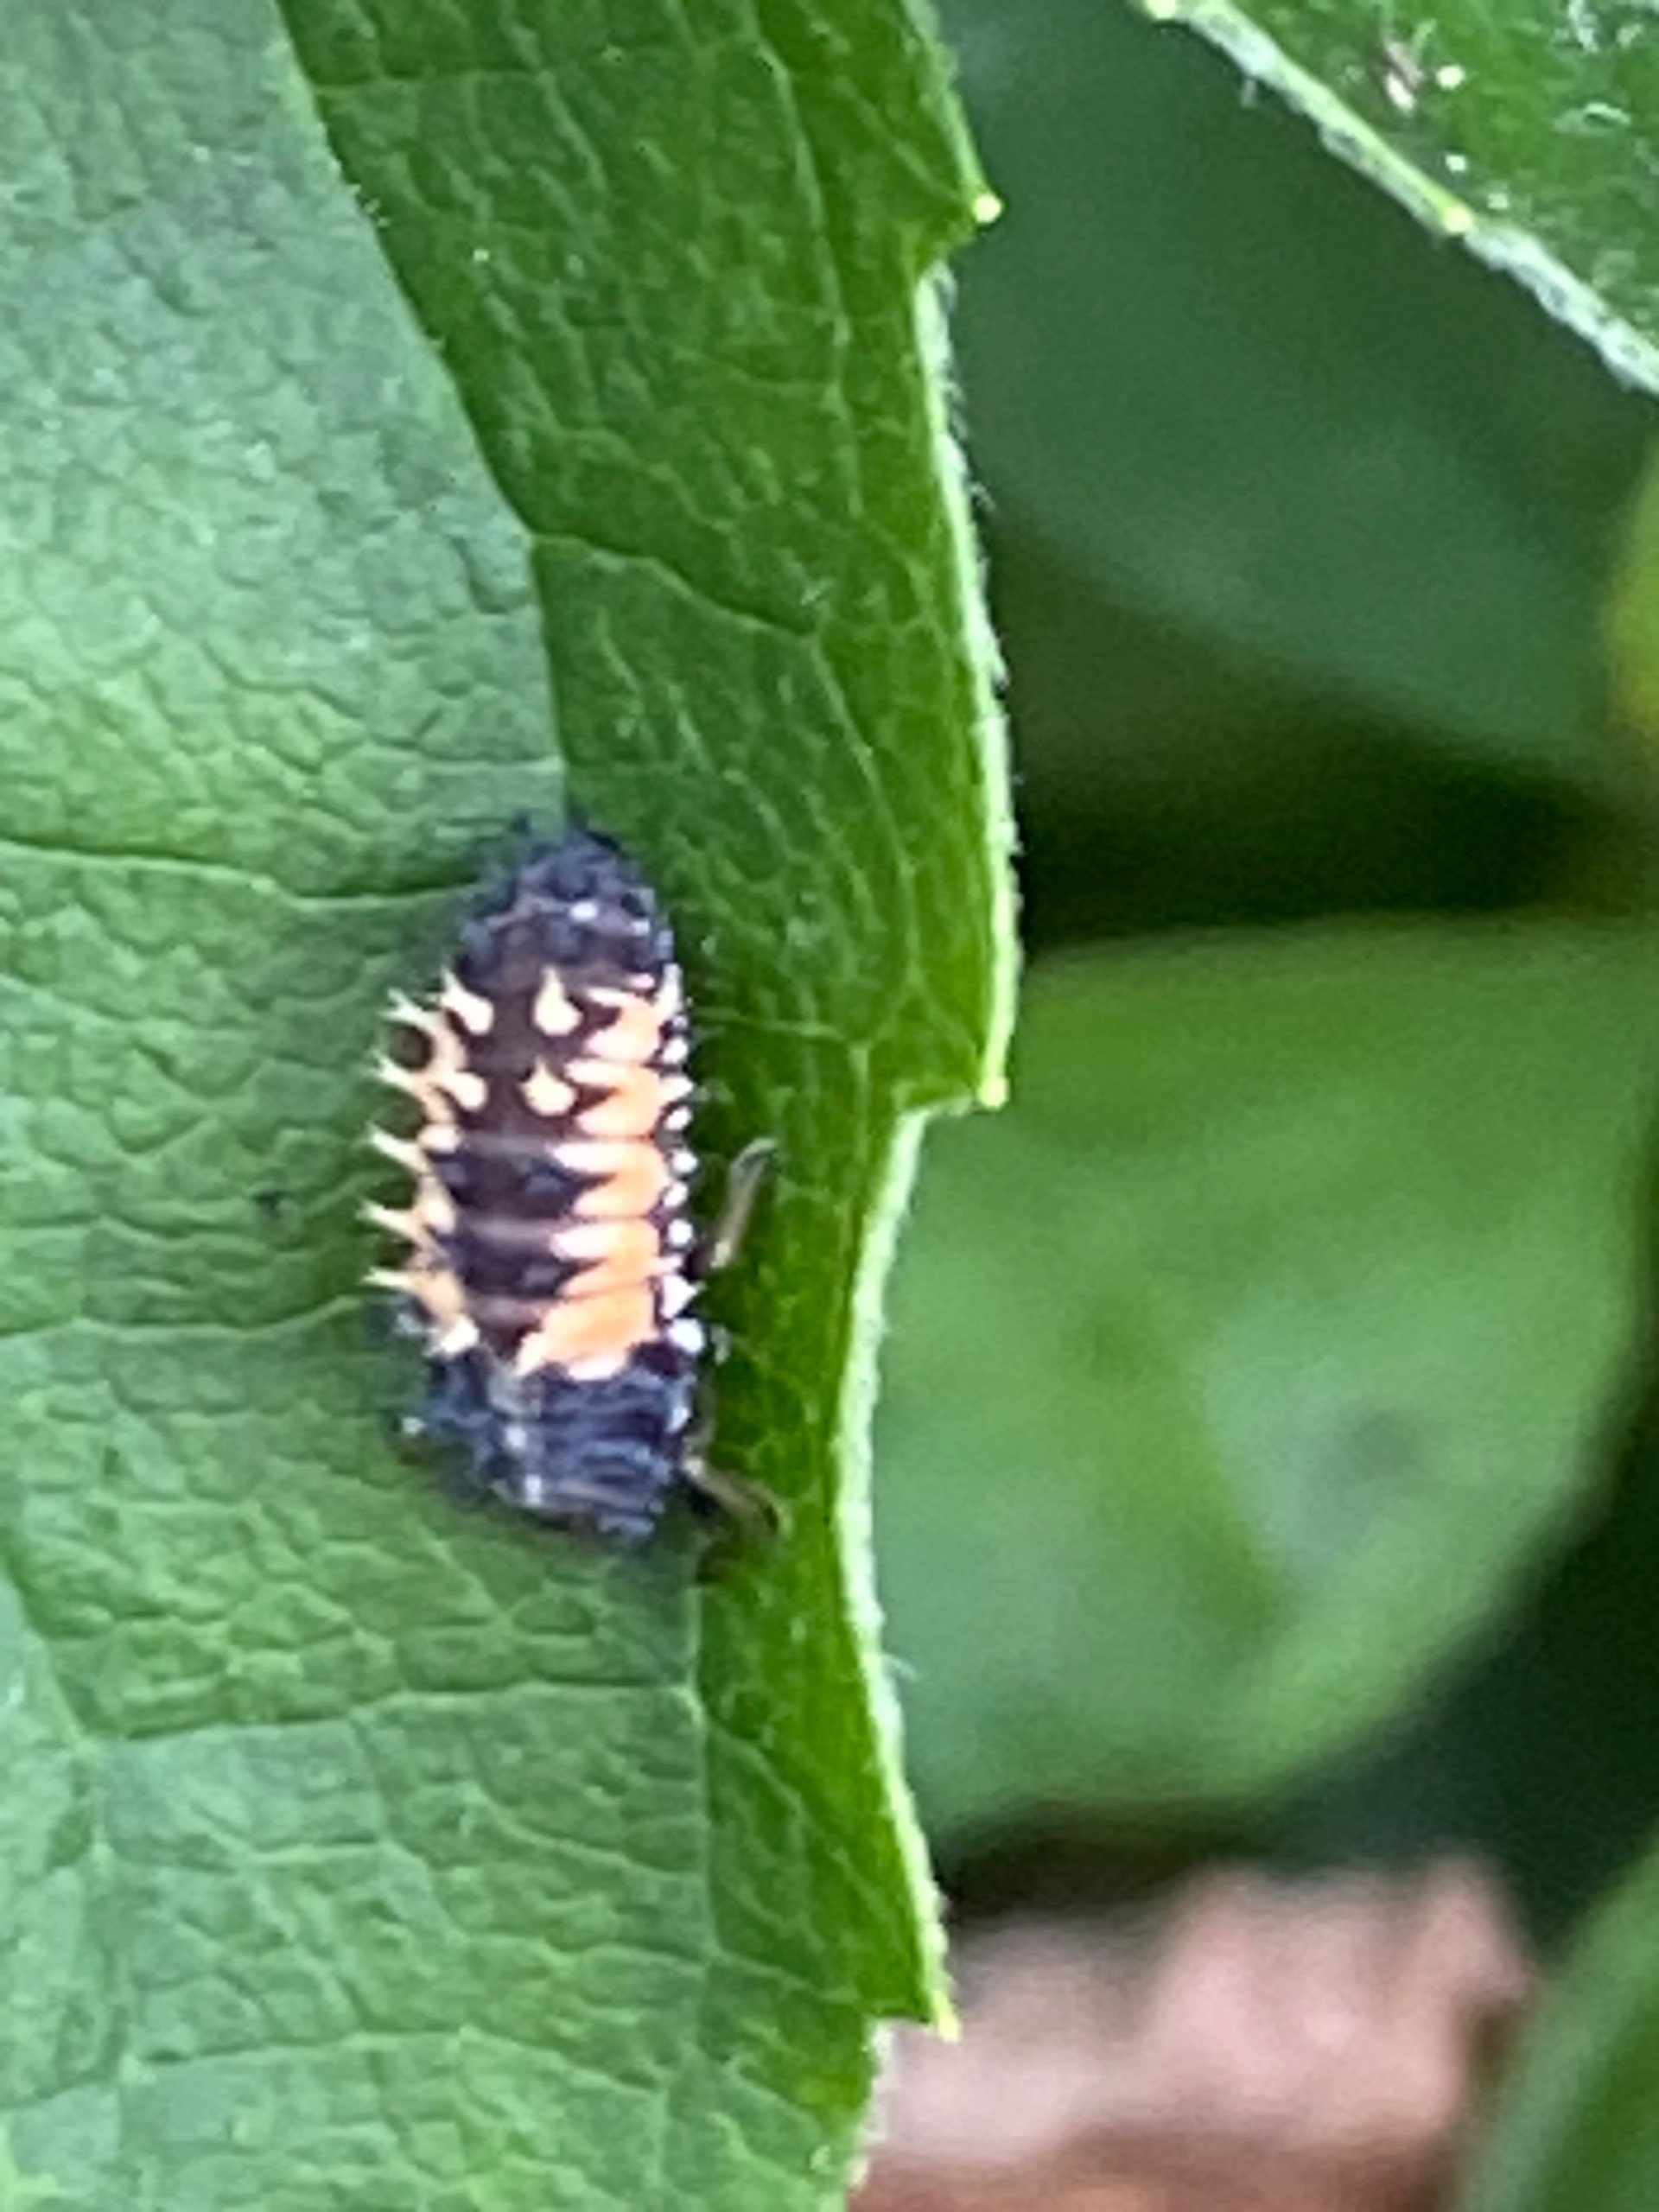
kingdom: Animalia
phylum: Arthropoda
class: Insecta
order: Coleoptera
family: Coccinellidae
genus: Harmonia
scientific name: Harmonia axyridis
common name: Harlekinmariehøne
